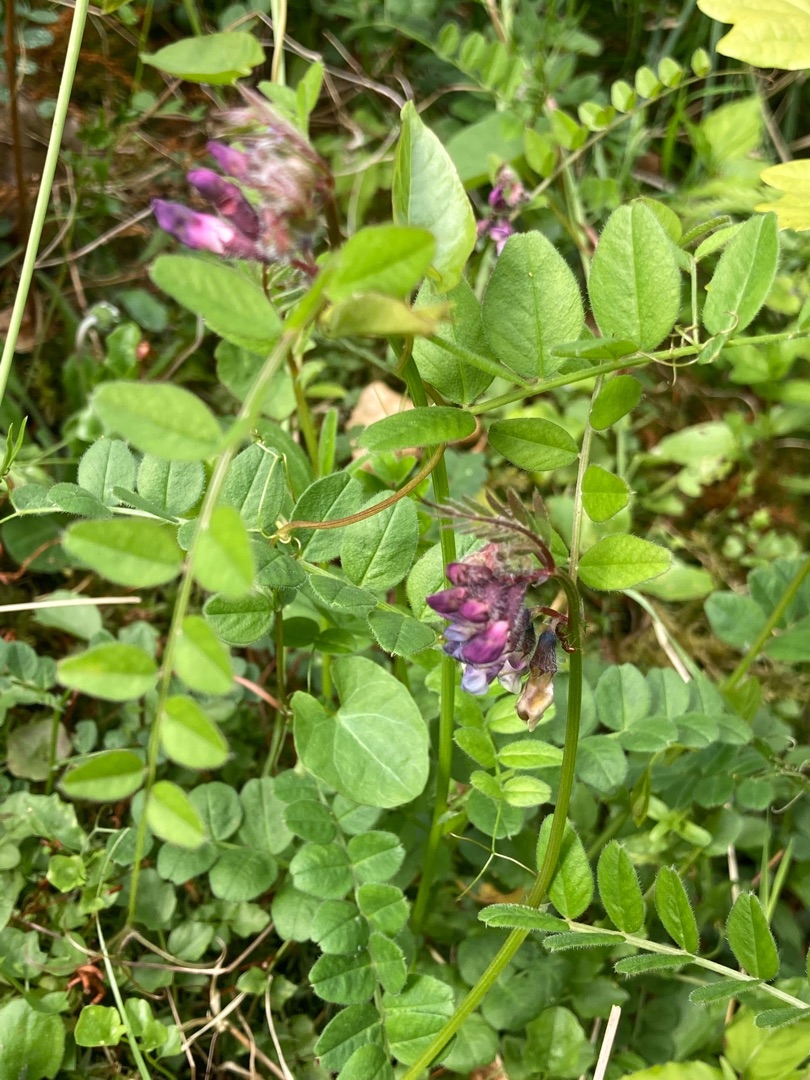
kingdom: Plantae
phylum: Tracheophyta
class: Magnoliopsida
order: Fabales
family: Fabaceae
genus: Vicia
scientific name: Vicia sepium
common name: Gærde-vikke
